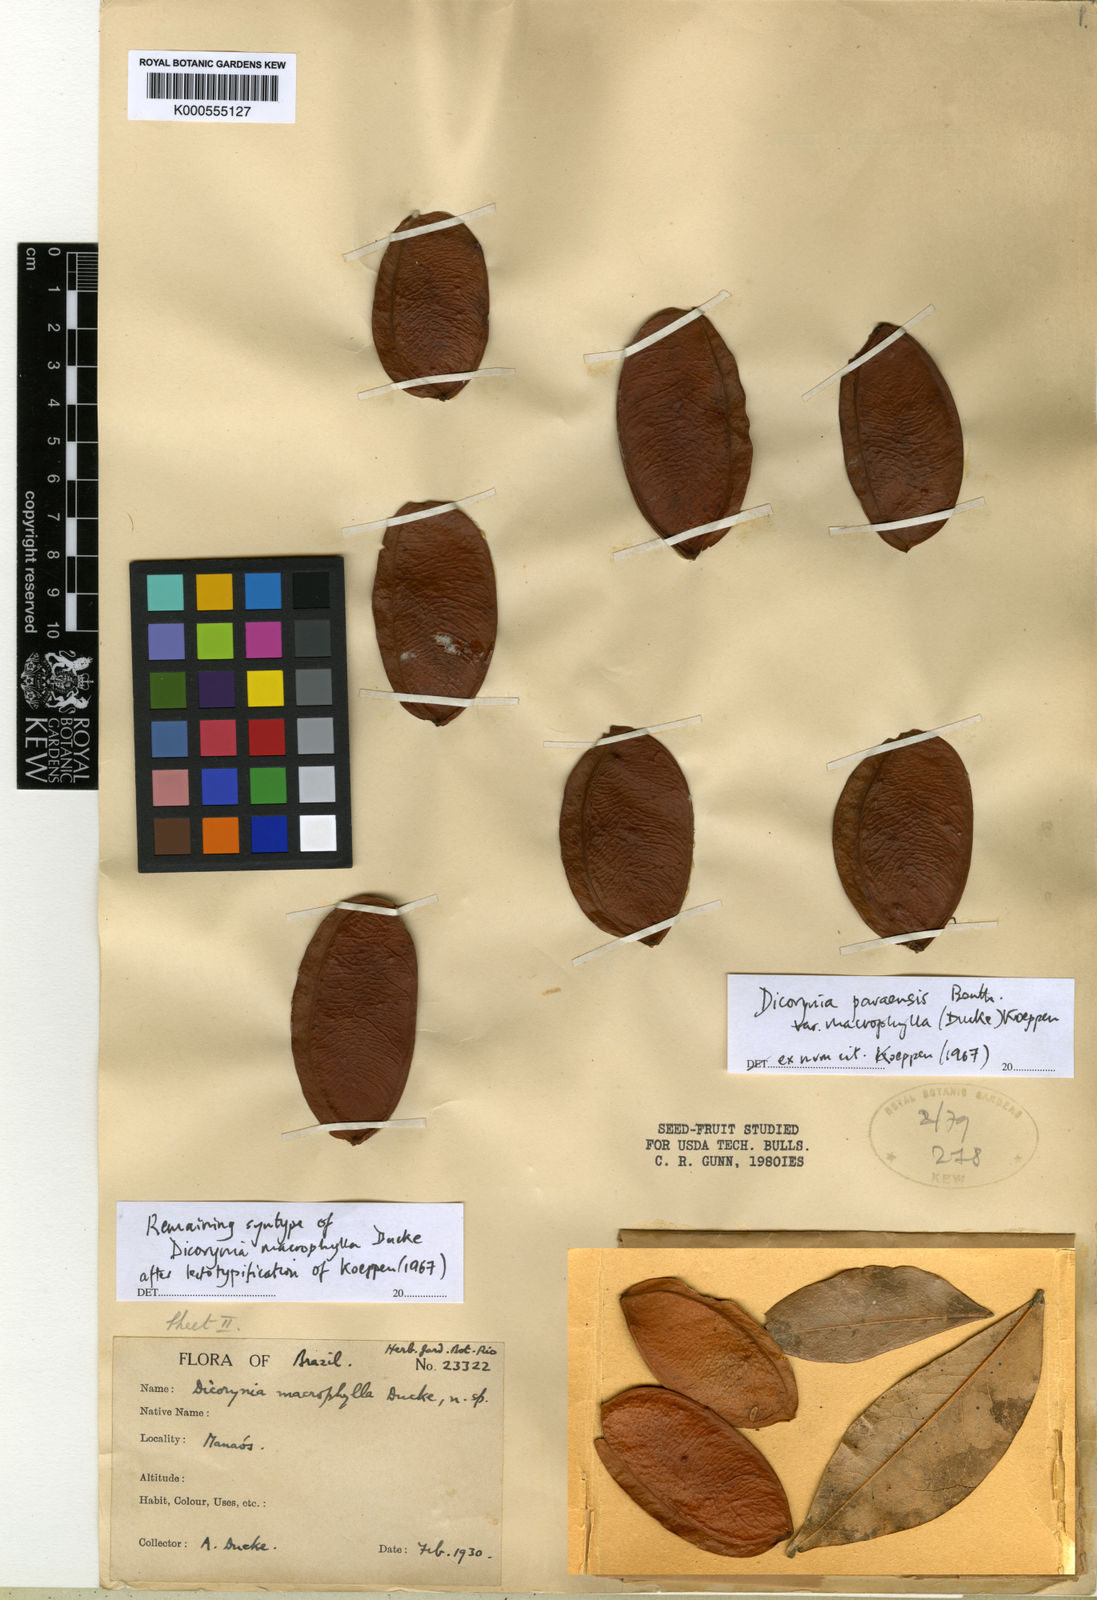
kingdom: Plantae
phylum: Tracheophyta
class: Magnoliopsida
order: Fabales
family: Fabaceae
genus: Dicorynia
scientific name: Dicorynia paraensis
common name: Angelique
